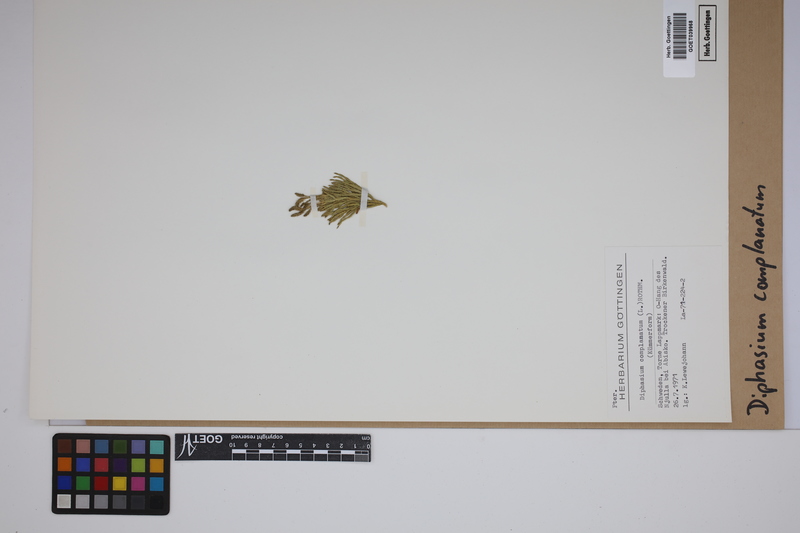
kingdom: Plantae
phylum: Tracheophyta
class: Lycopodiopsida
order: Lycopodiales
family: Lycopodiaceae
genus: Diphasiastrum
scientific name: Diphasiastrum complanatum
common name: Northern running-pine
